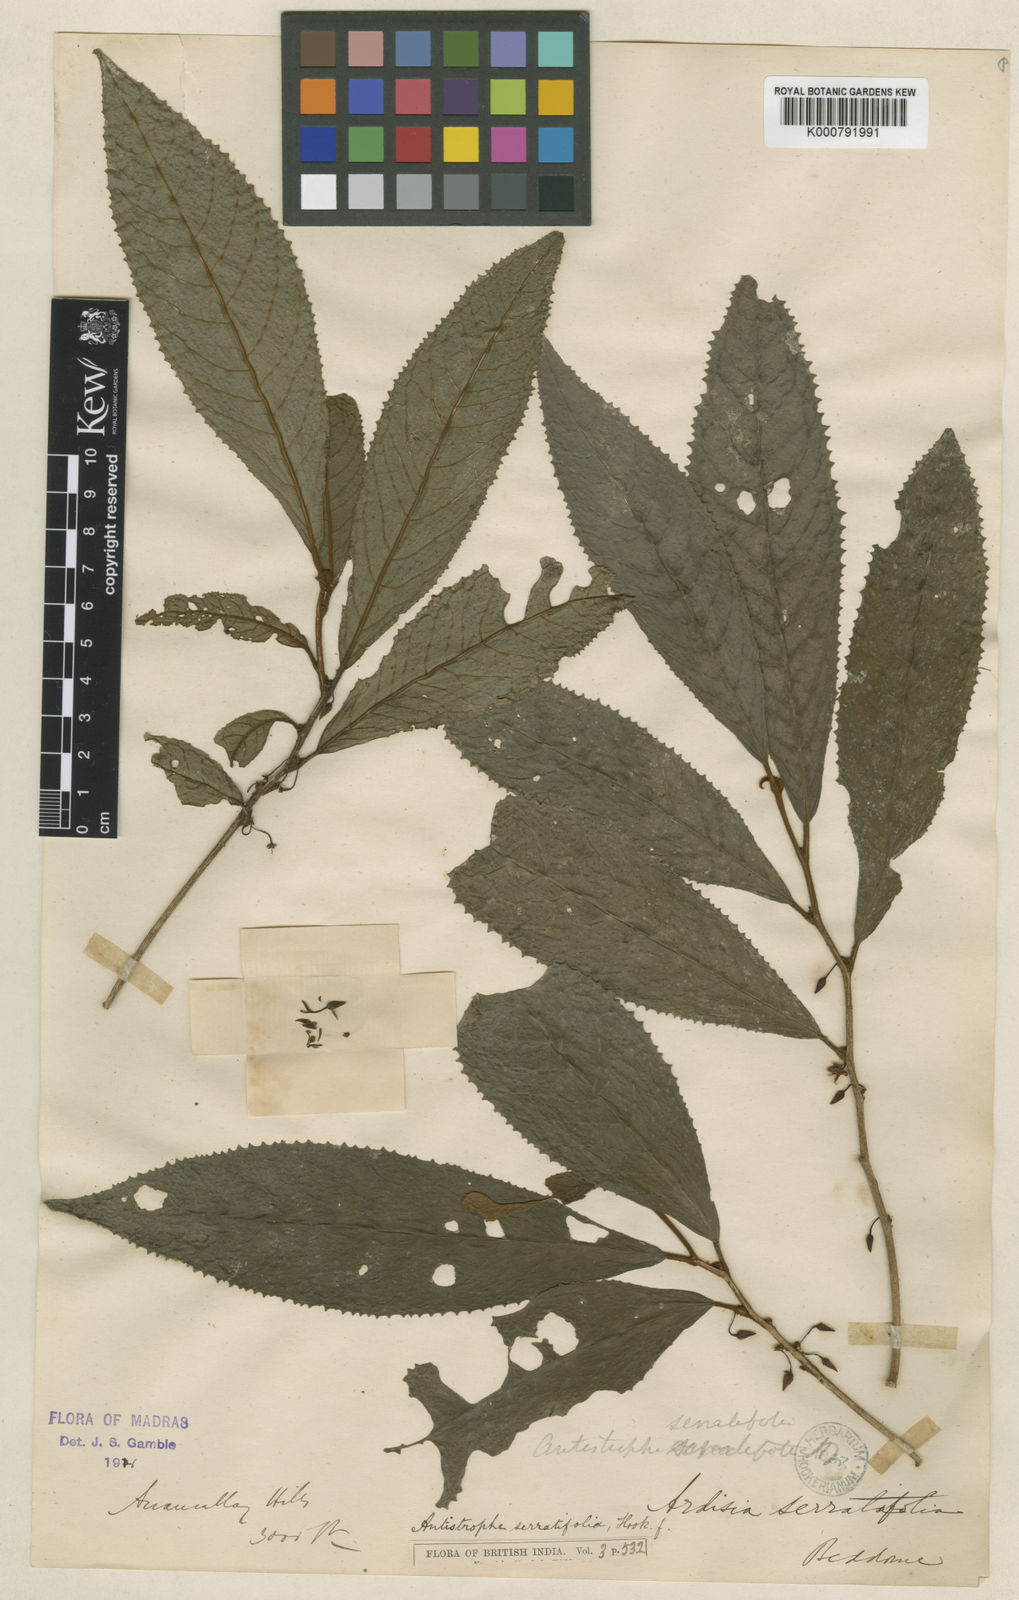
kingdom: Plantae
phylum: Tracheophyta
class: Magnoliopsida
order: Ericales
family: Primulaceae
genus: Antistrophe
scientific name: Antistrophe serratifolia
